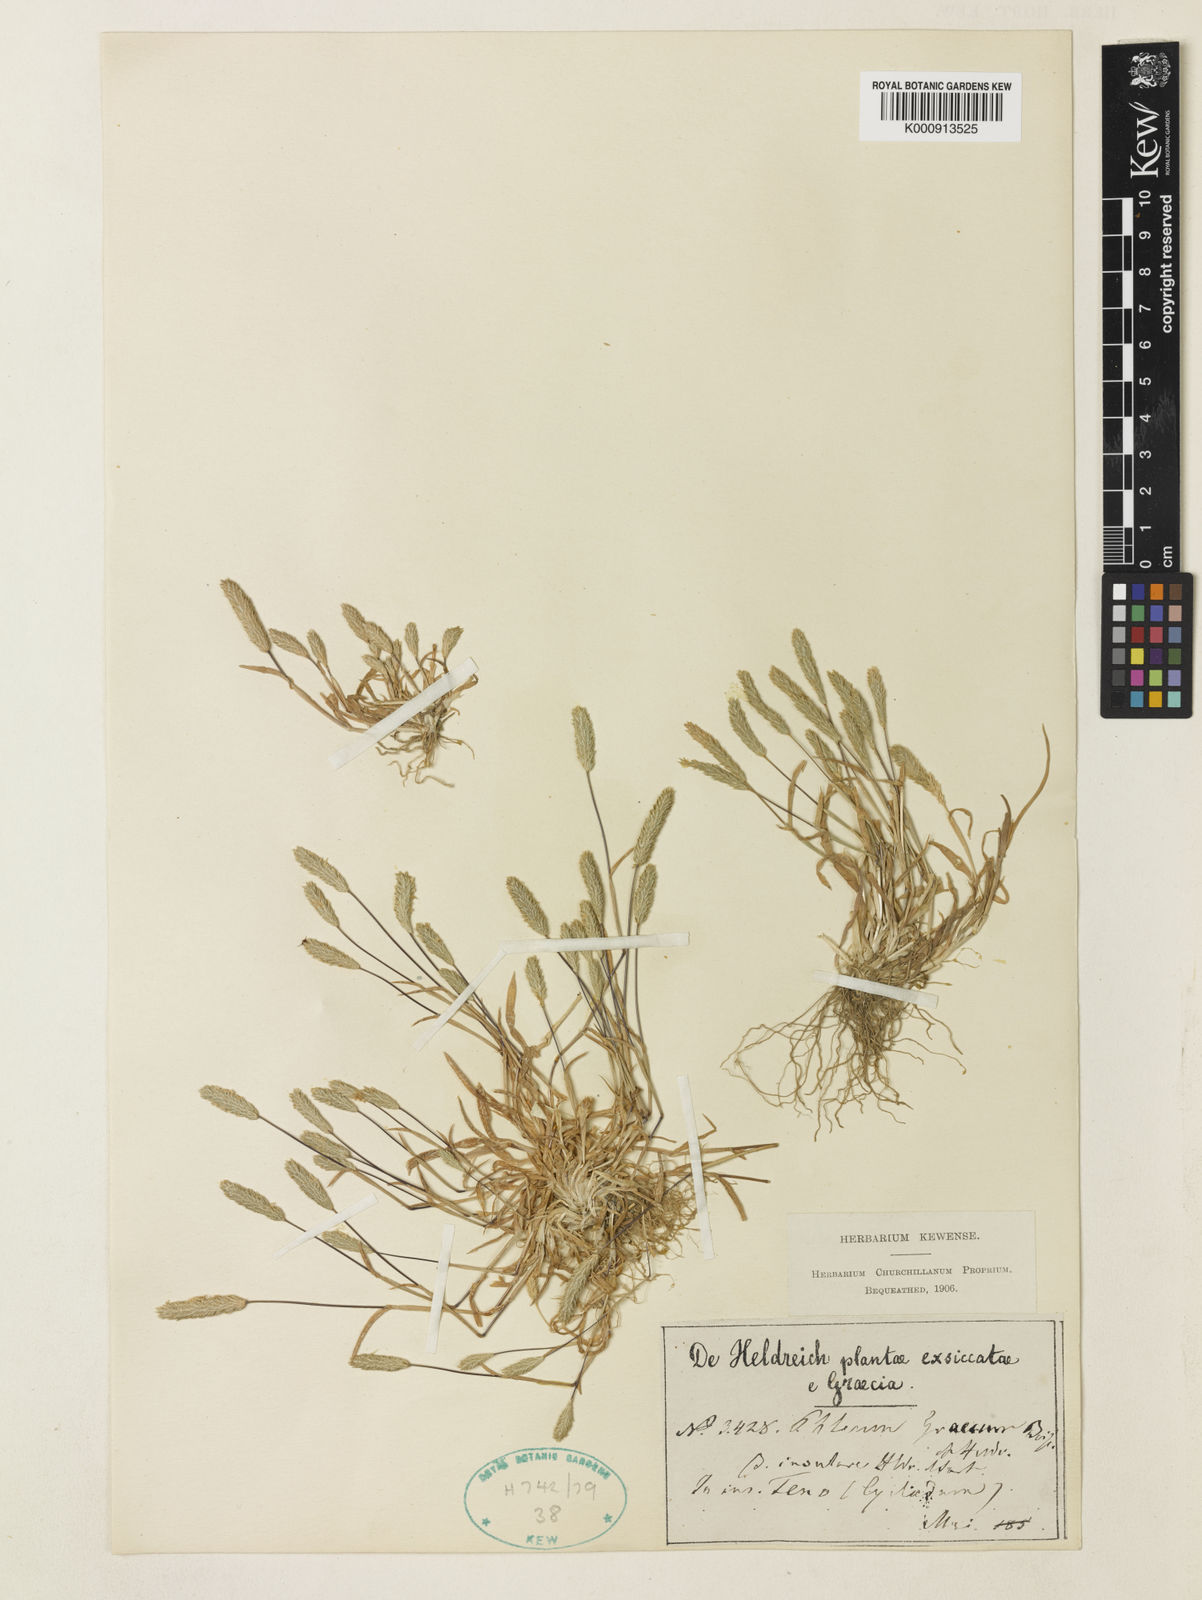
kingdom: Plantae
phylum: Tracheophyta
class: Liliopsida
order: Poales
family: Poaceae
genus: Phleum
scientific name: Phleum exaratum
